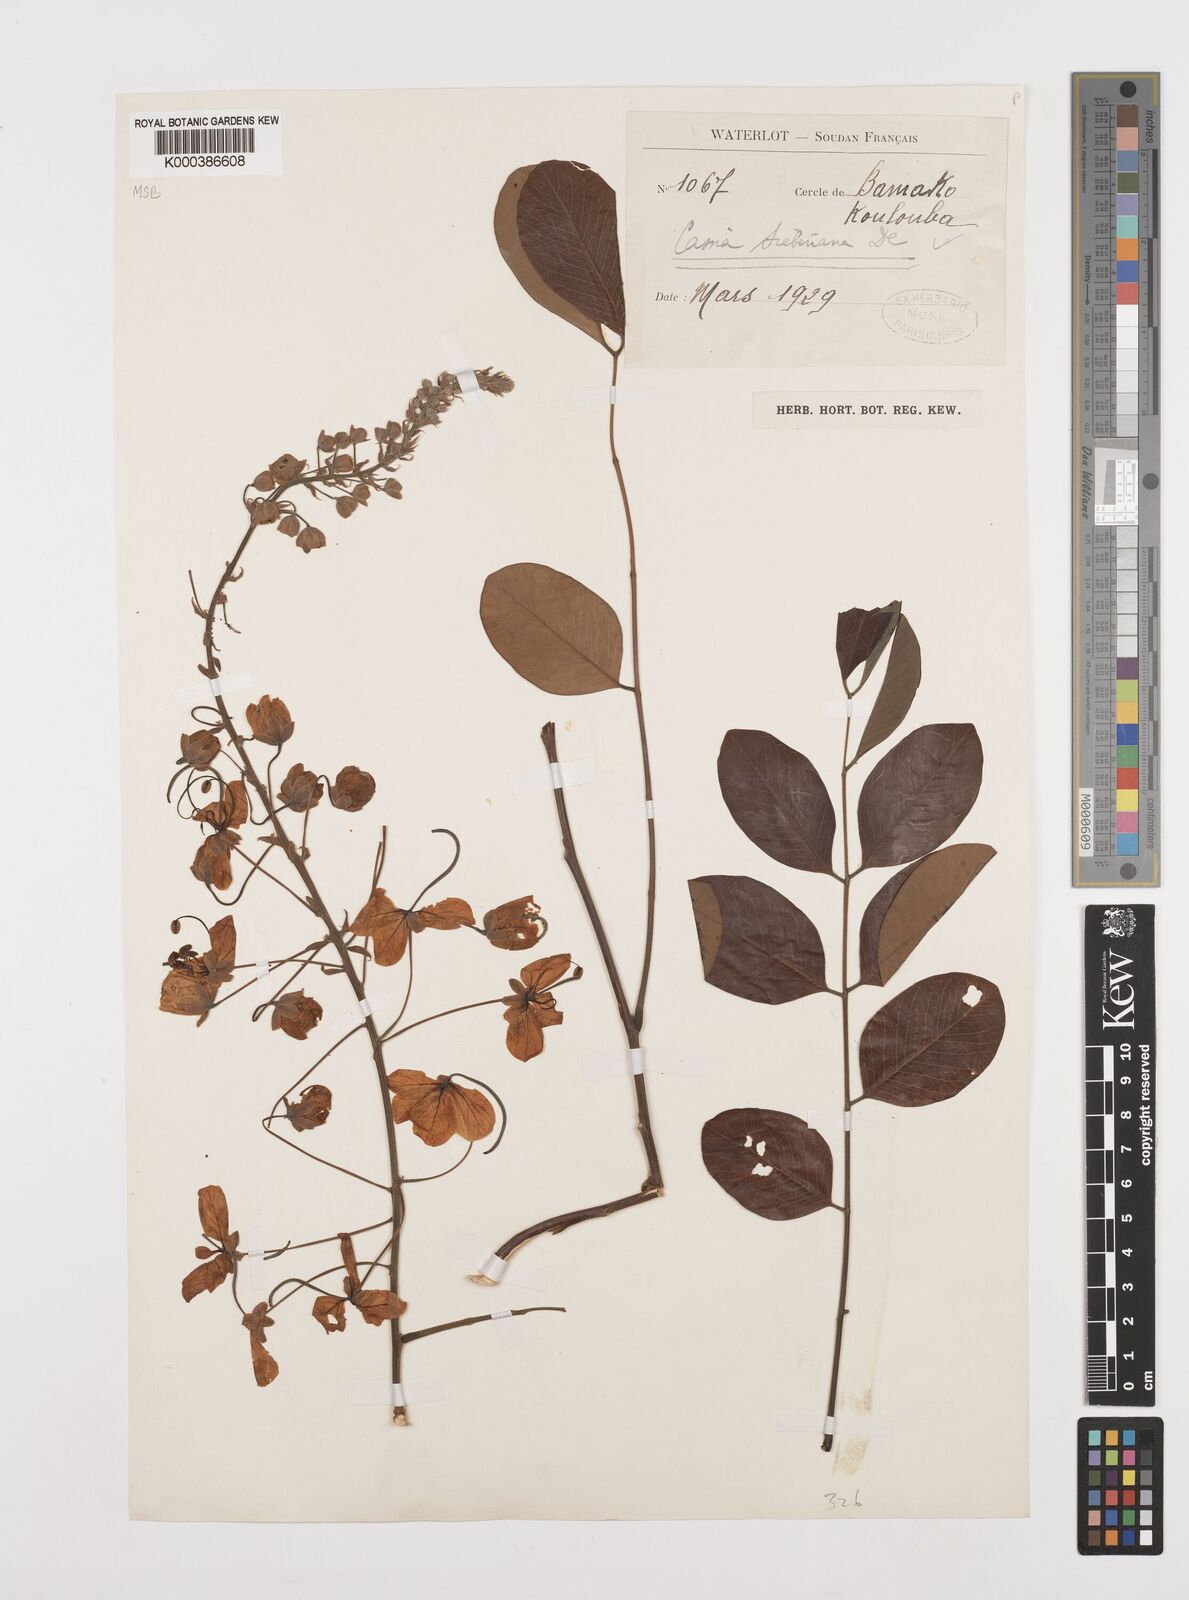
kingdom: Plantae
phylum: Tracheophyta
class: Magnoliopsida
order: Fabales
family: Fabaceae
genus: Cassia
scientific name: Cassia sieberiana
